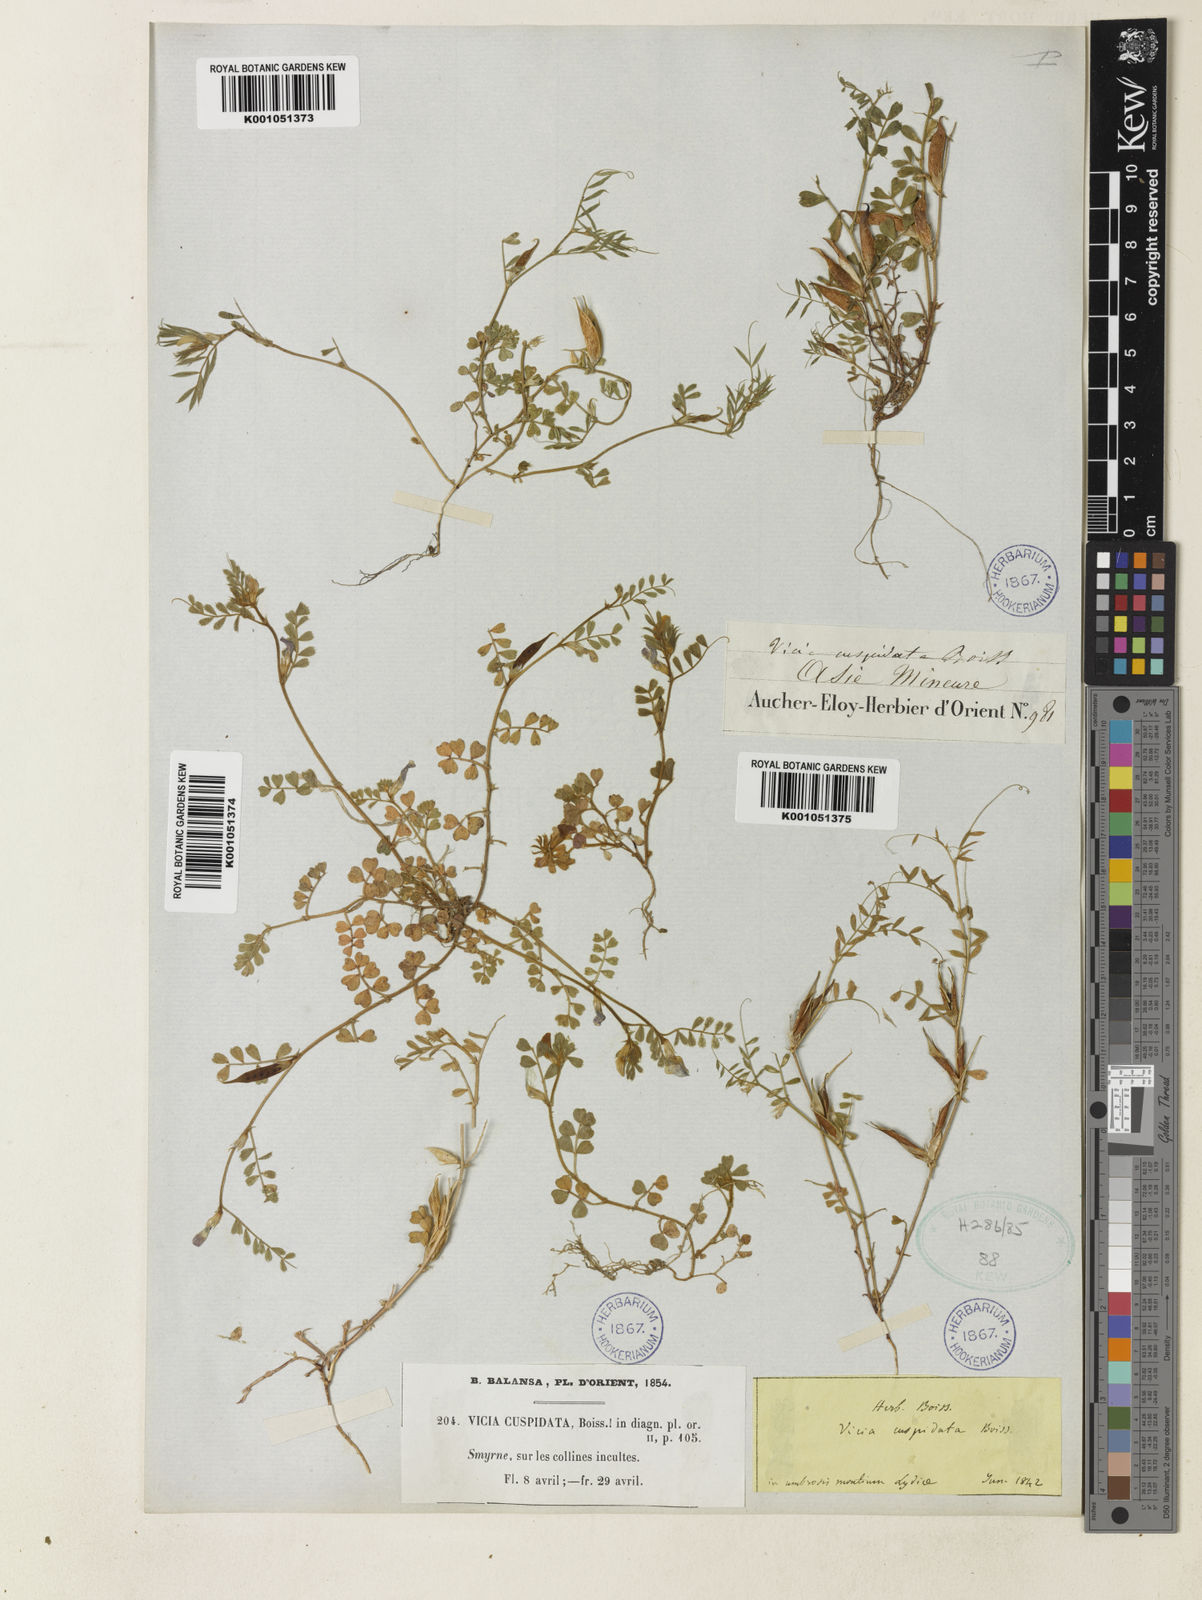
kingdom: Plantae
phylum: Tracheophyta
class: Magnoliopsida
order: Fabales
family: Fabaceae
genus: Vicia
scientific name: Vicia cuspidata
